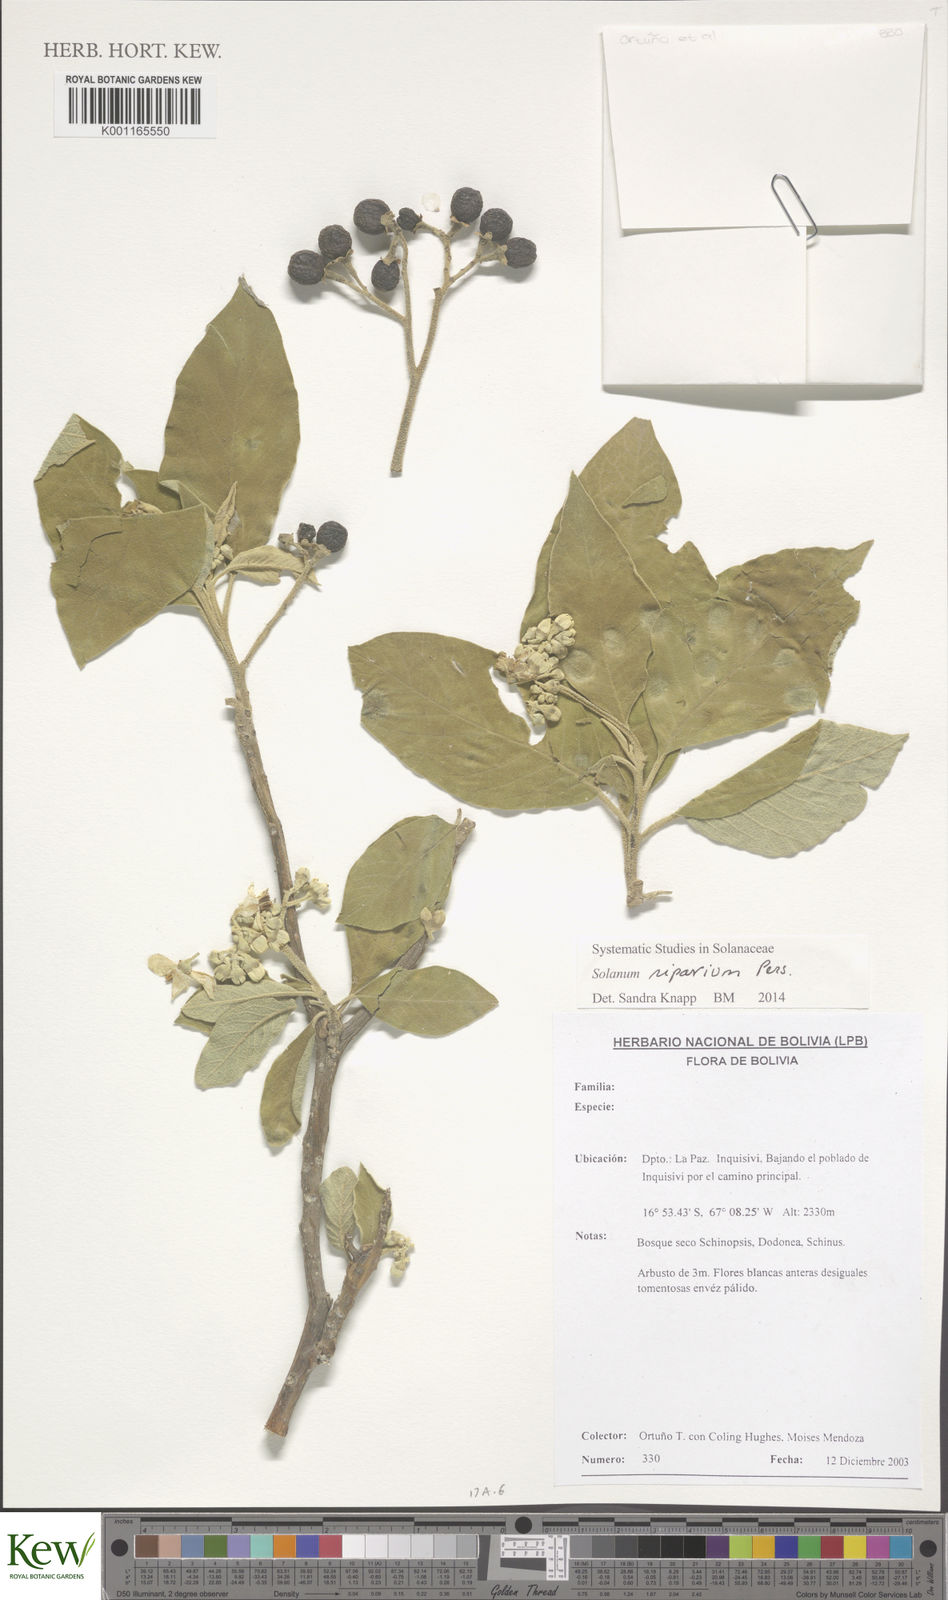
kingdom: Plantae
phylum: Tracheophyta
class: Magnoliopsida
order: Solanales
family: Solanaceae
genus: Solanum
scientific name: Solanum riparium
